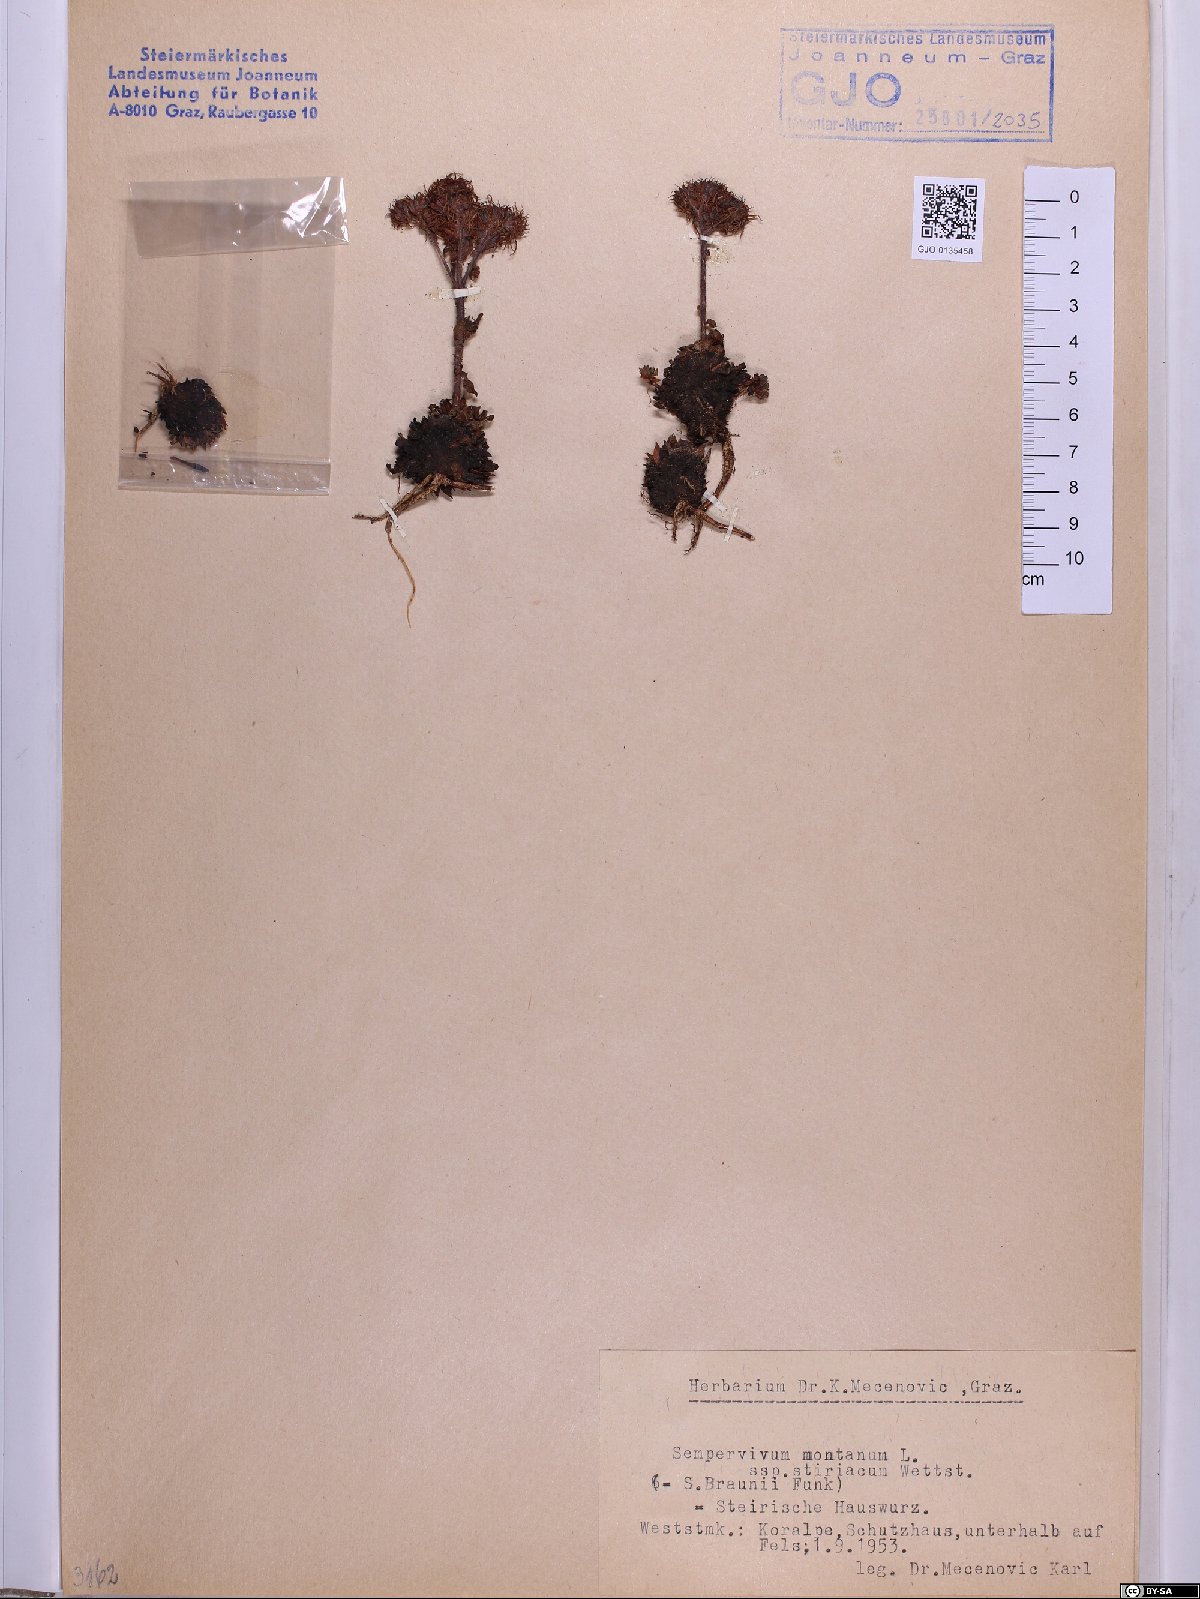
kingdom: Plantae
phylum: Tracheophyta
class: Magnoliopsida
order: Saxifragales
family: Crassulaceae
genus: Sempervivum
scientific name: Sempervivum montanum
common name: Mountain house-leek
